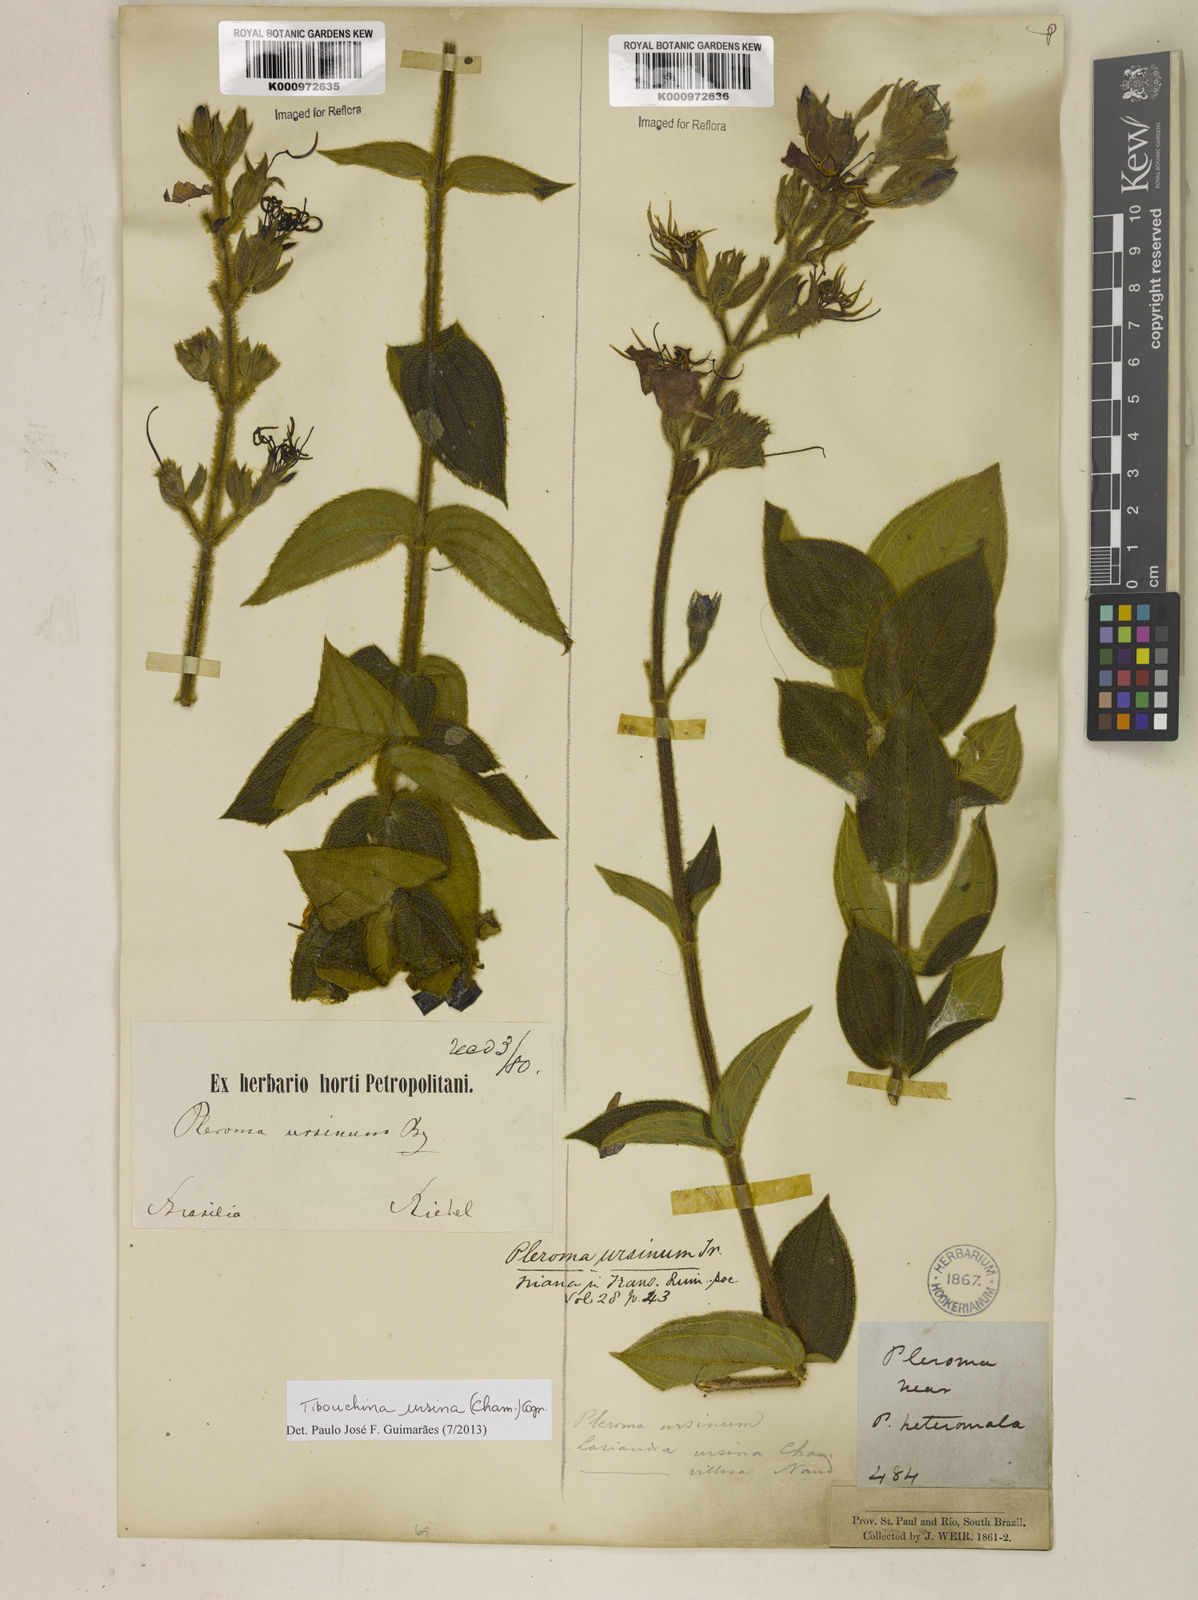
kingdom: Plantae
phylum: Tracheophyta
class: Magnoliopsida
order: Myrtales
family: Melastomataceae
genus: Pleroma
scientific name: Pleroma ursinum
